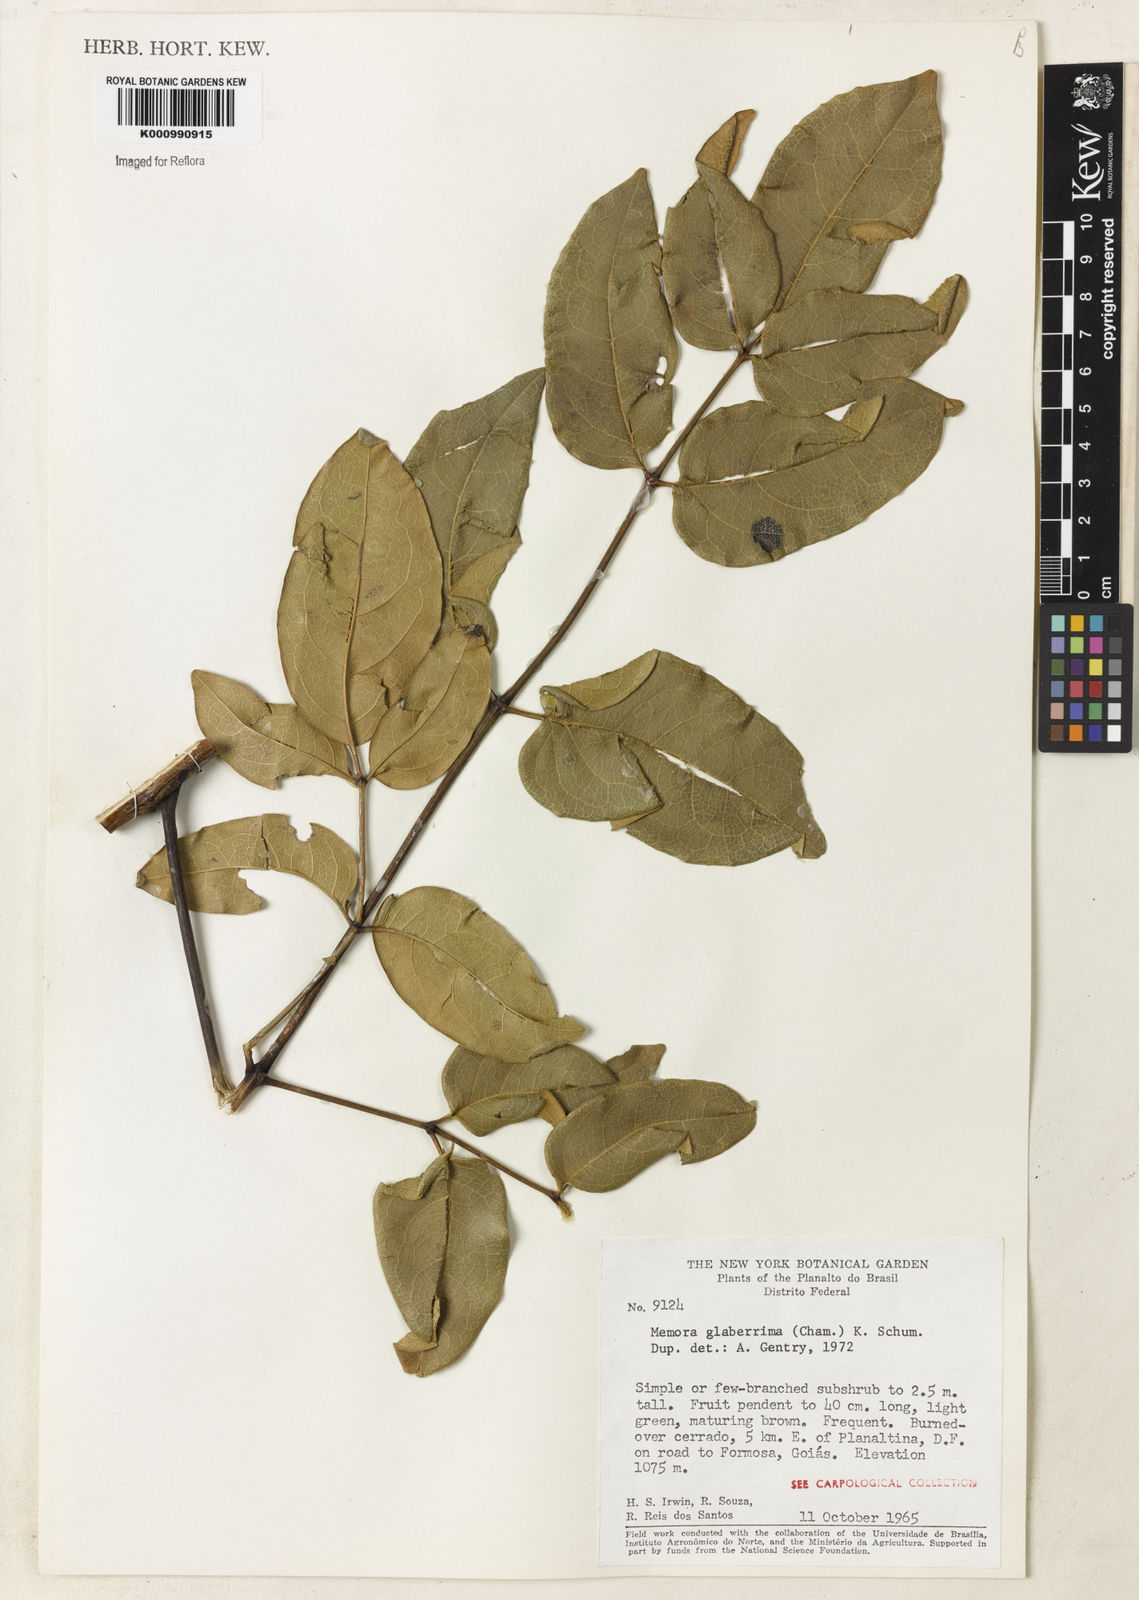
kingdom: Plantae
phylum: Tracheophyta
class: Magnoliopsida
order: Lamiales
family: Bignoniaceae
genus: Adenocalymma
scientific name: Adenocalymma pedunculatum
